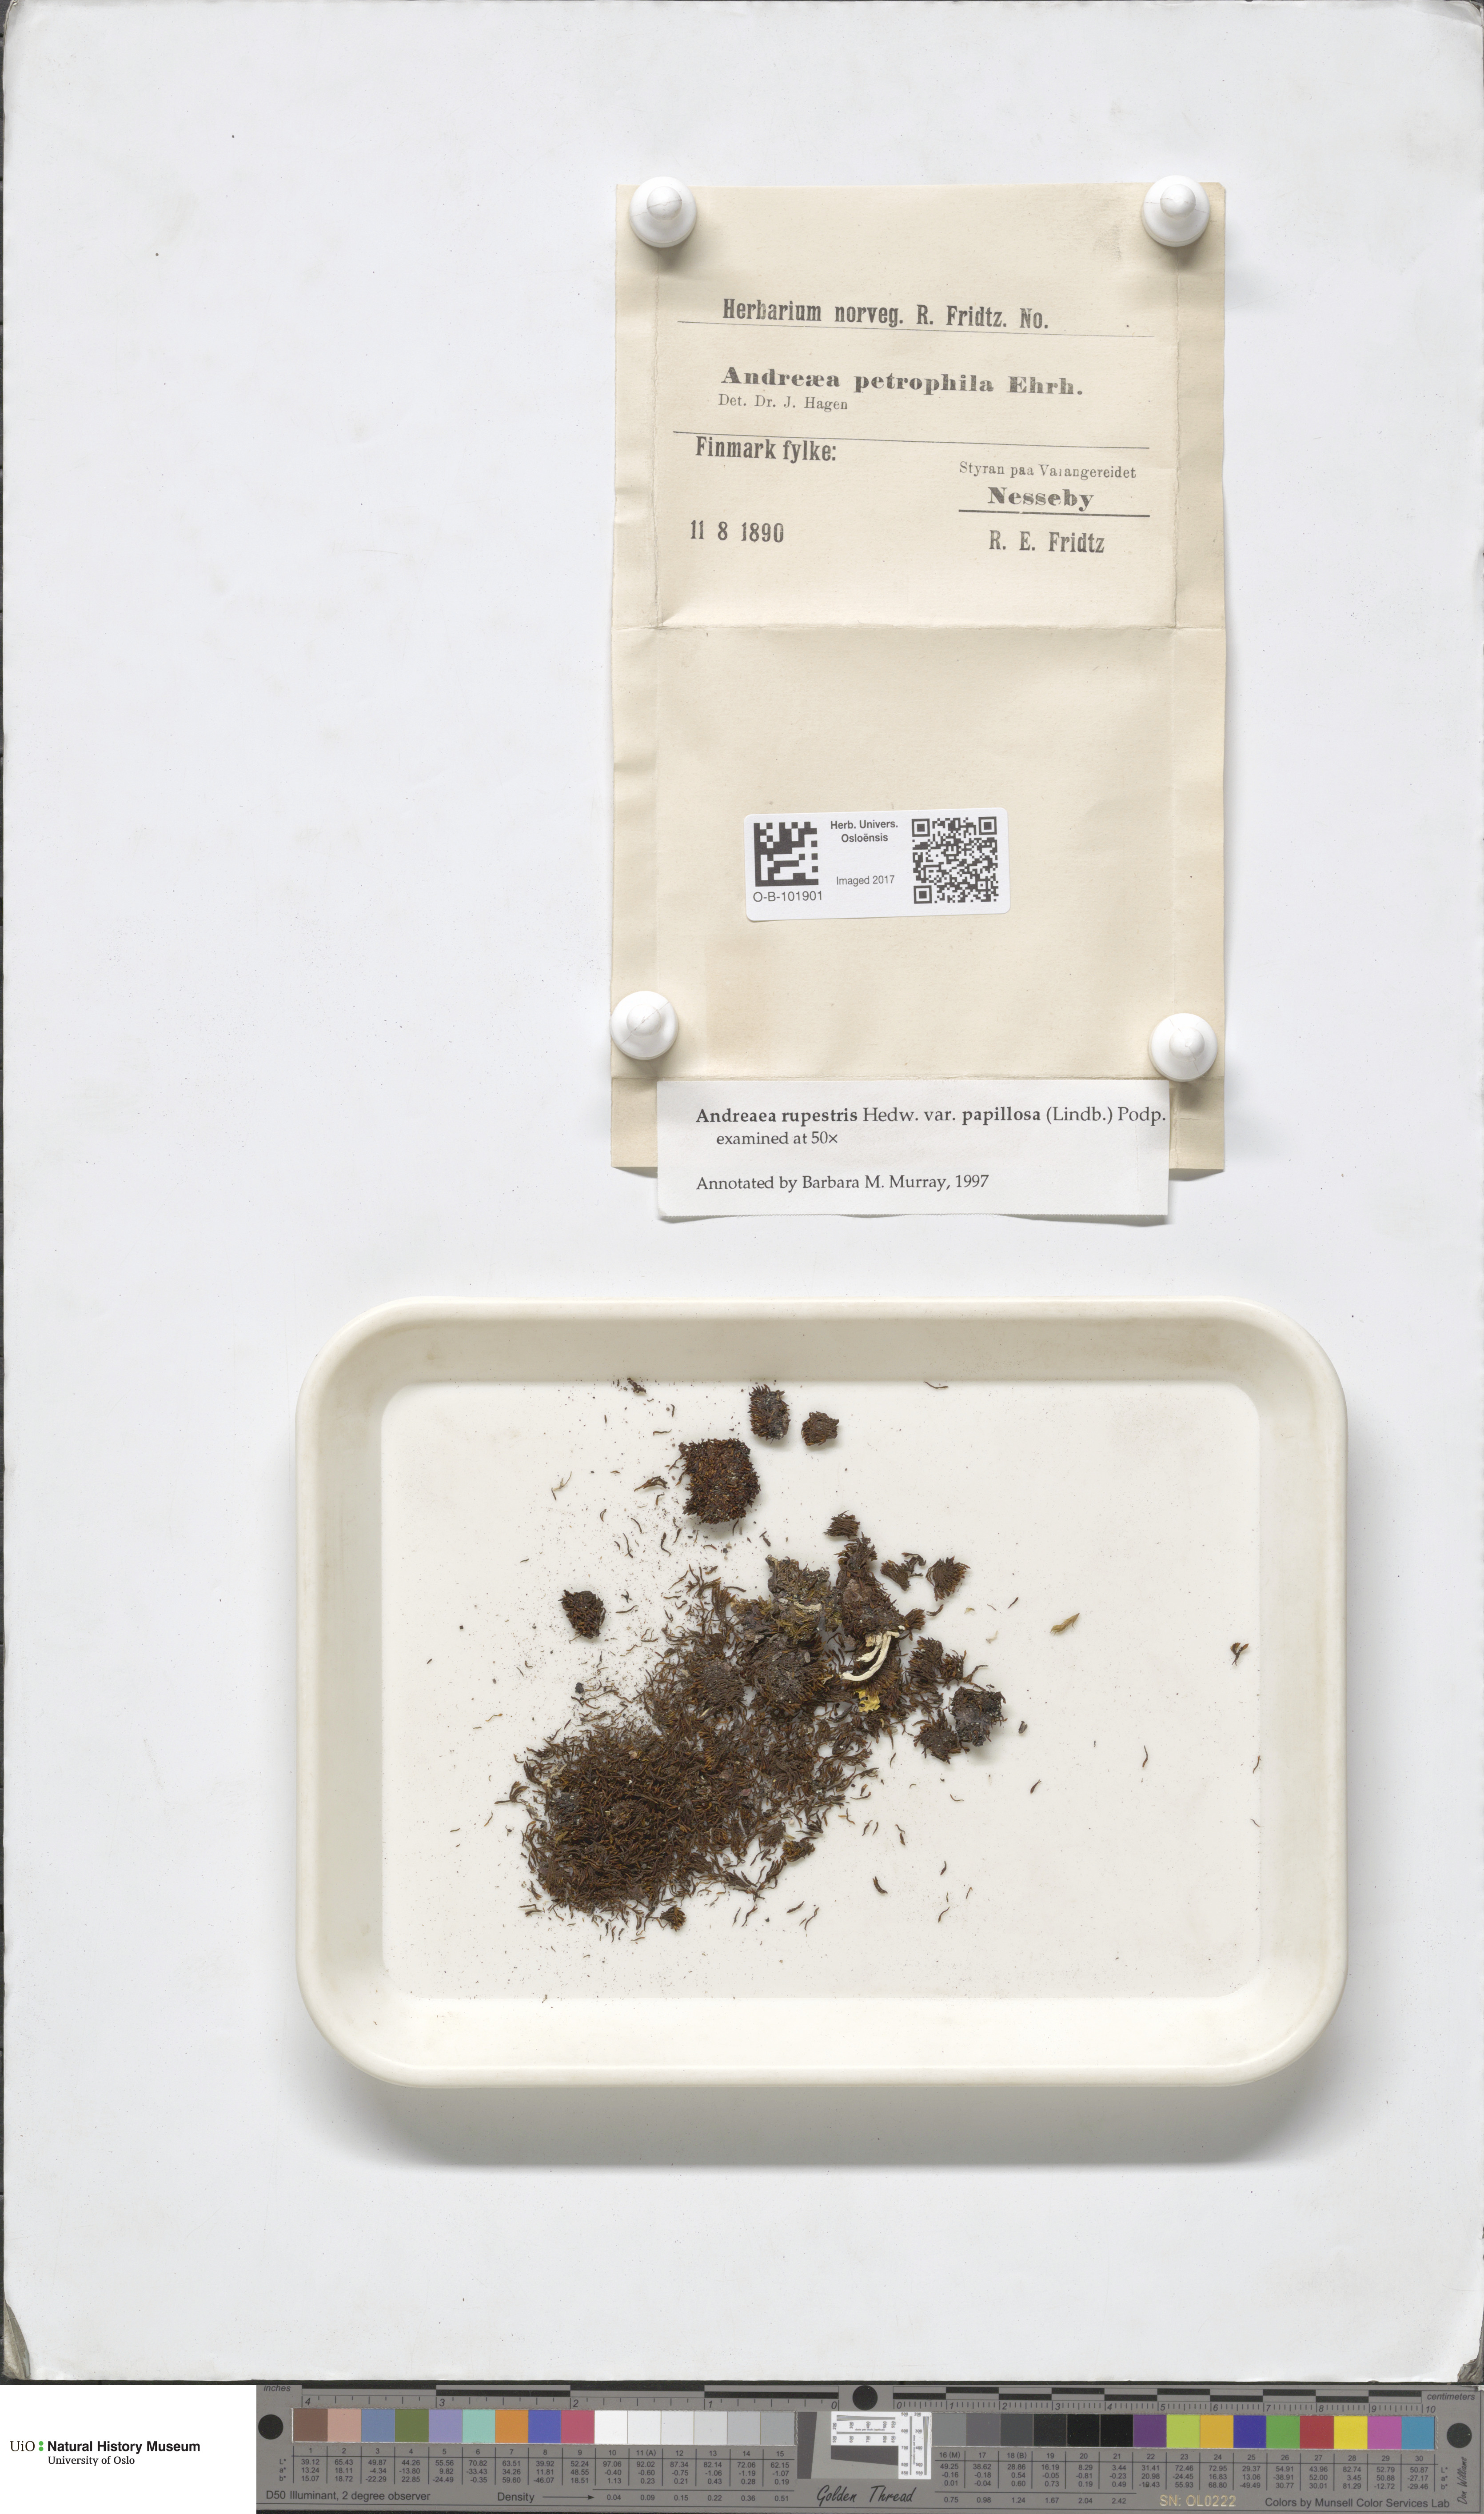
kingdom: Plantae
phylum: Bryophyta
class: Andreaeopsida
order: Andreaeales
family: Andreaeaceae
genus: Andreaea
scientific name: Andreaea rupestris
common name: Black rock moss
